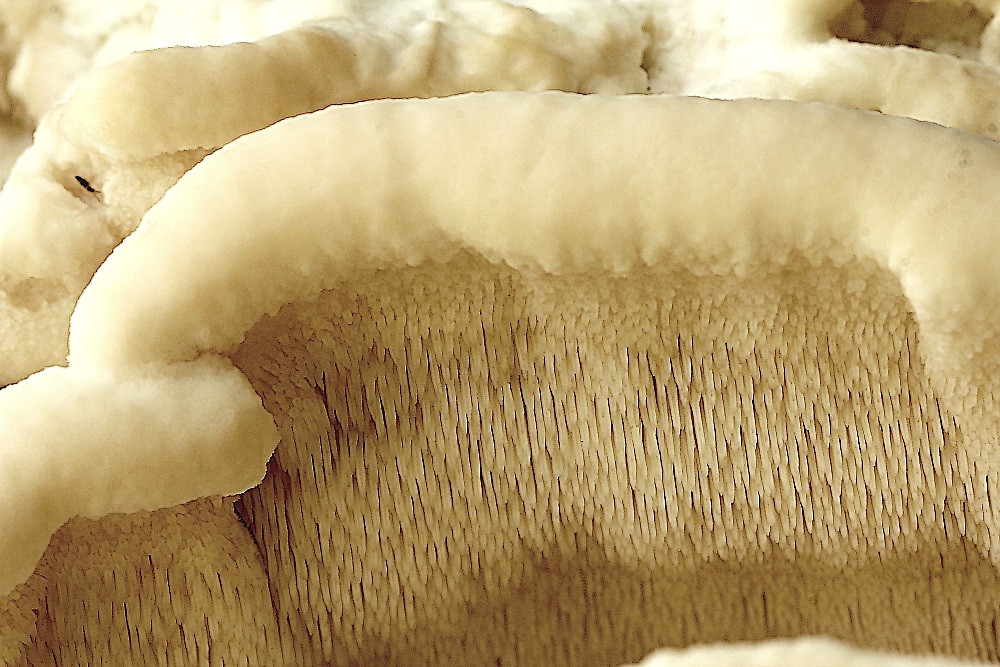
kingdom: Fungi
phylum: Basidiomycota
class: Agaricomycetes
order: Polyporales
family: Meruliaceae
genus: Climacodon
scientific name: Climacodon septentrionalis
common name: kæmpepigsvamp
